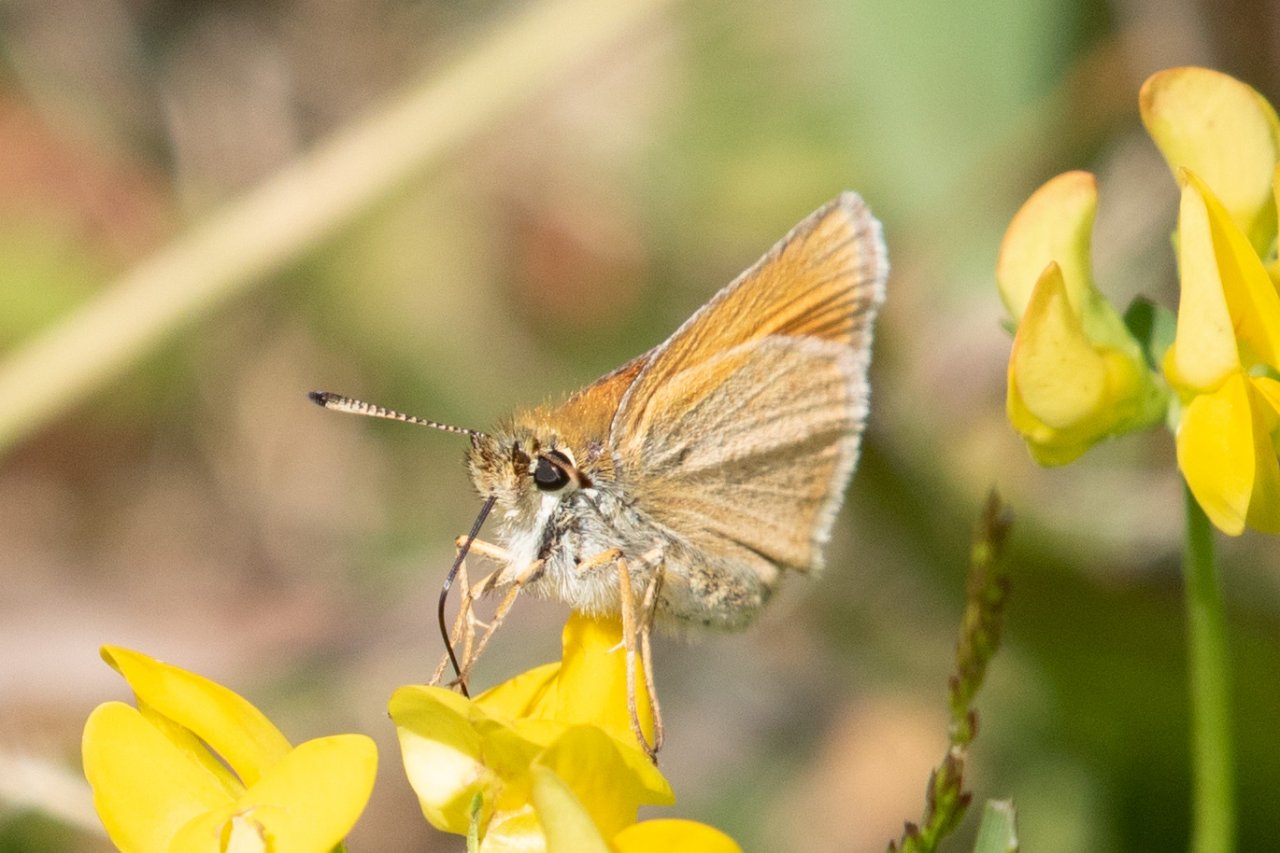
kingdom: Animalia
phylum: Arthropoda
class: Insecta
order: Lepidoptera
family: Hesperiidae
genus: Thymelicus
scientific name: Thymelicus lineola
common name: European Skipper
